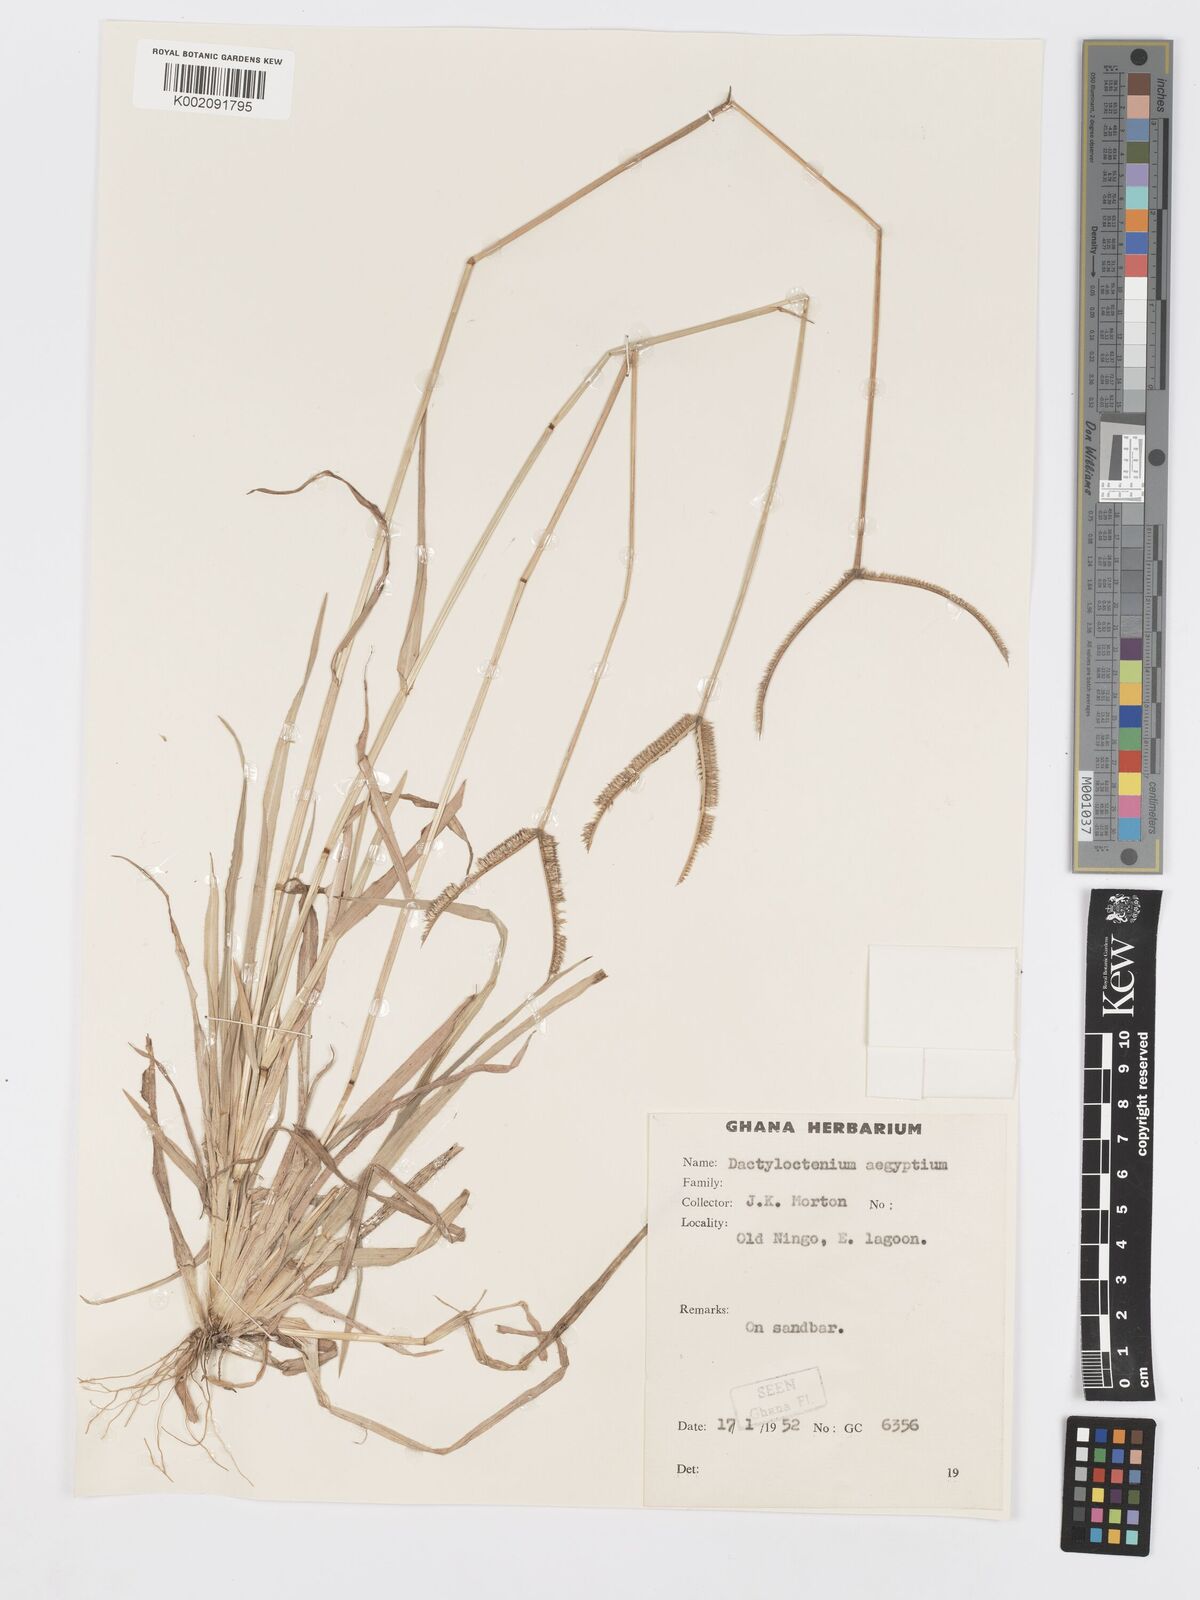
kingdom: Plantae
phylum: Tracheophyta
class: Liliopsida
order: Poales
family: Poaceae
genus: Dactyloctenium
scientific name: Dactyloctenium aegyptium
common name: Egyptian grass
